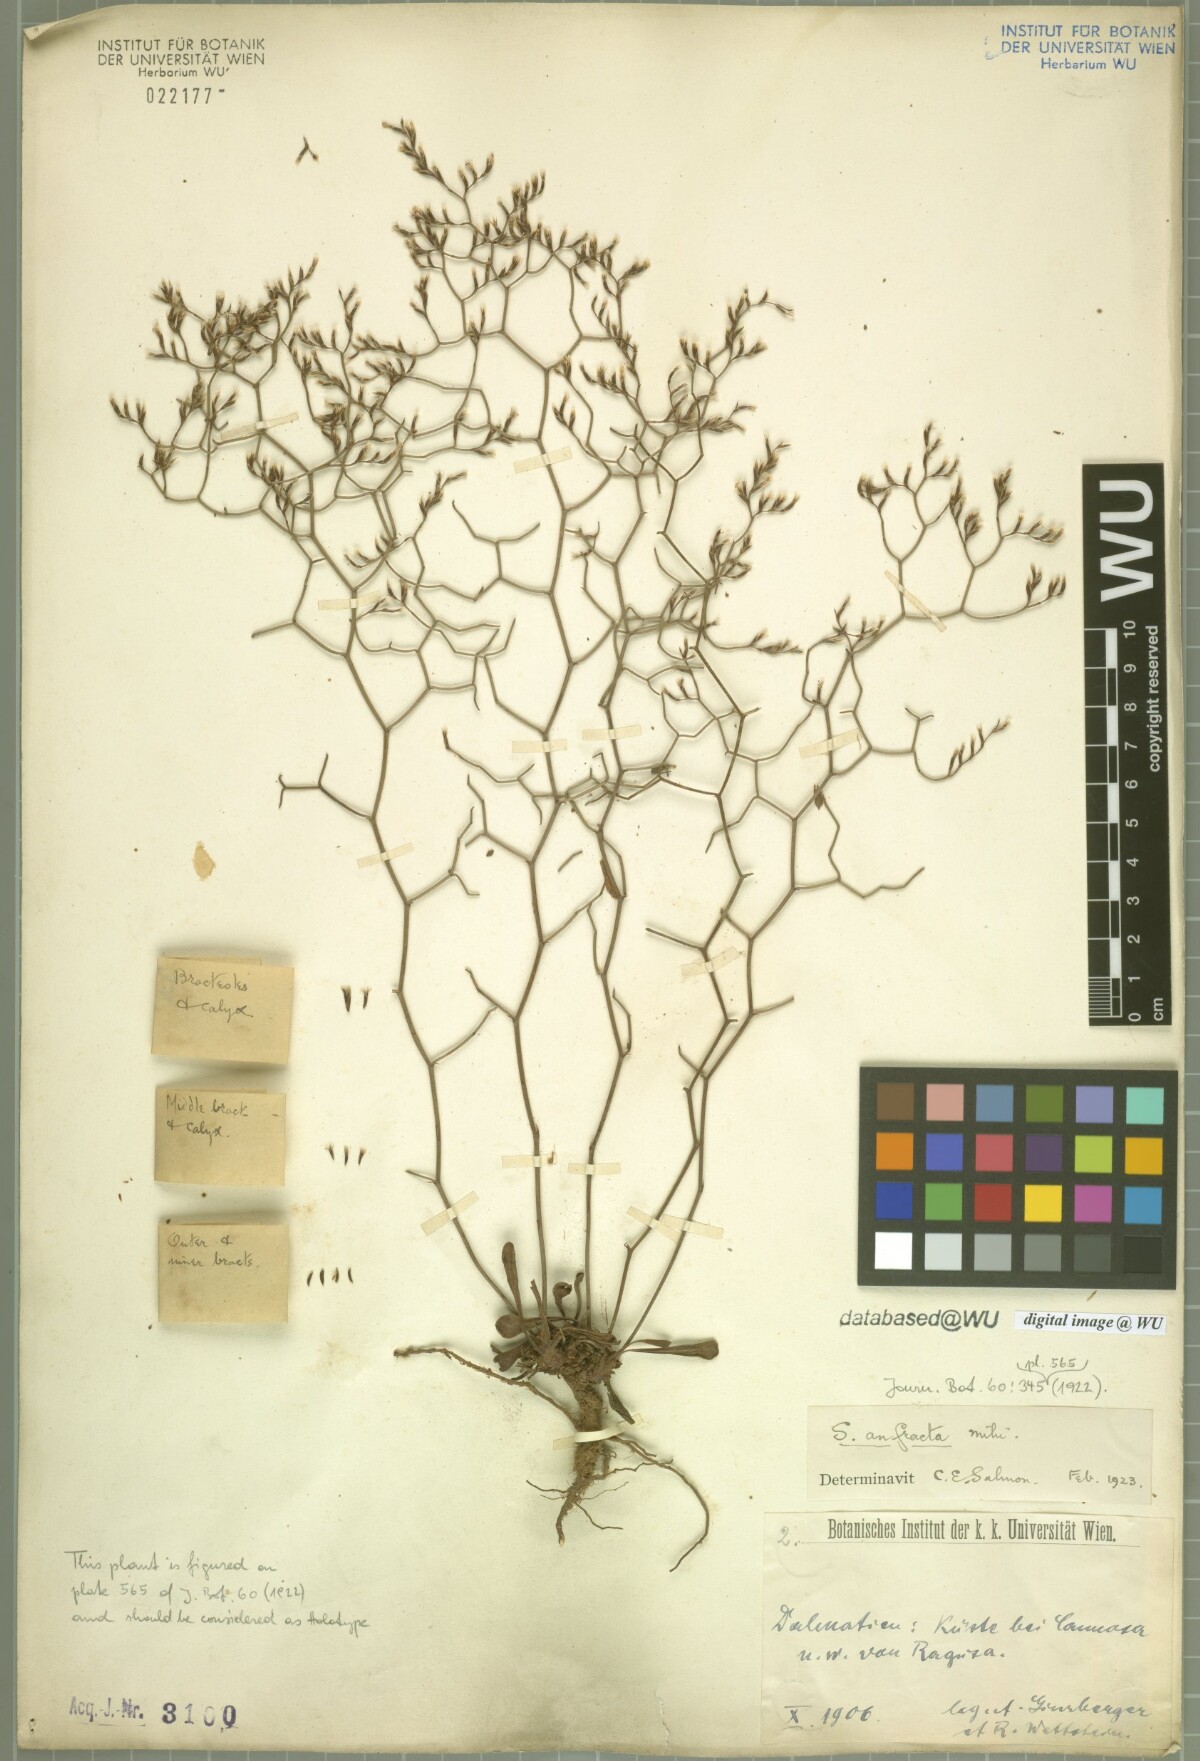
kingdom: Plantae
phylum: Tracheophyta
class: Magnoliopsida
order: Caryophyllales
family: Plumbaginaceae
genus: Limonium
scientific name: Limonium dictyophorum
